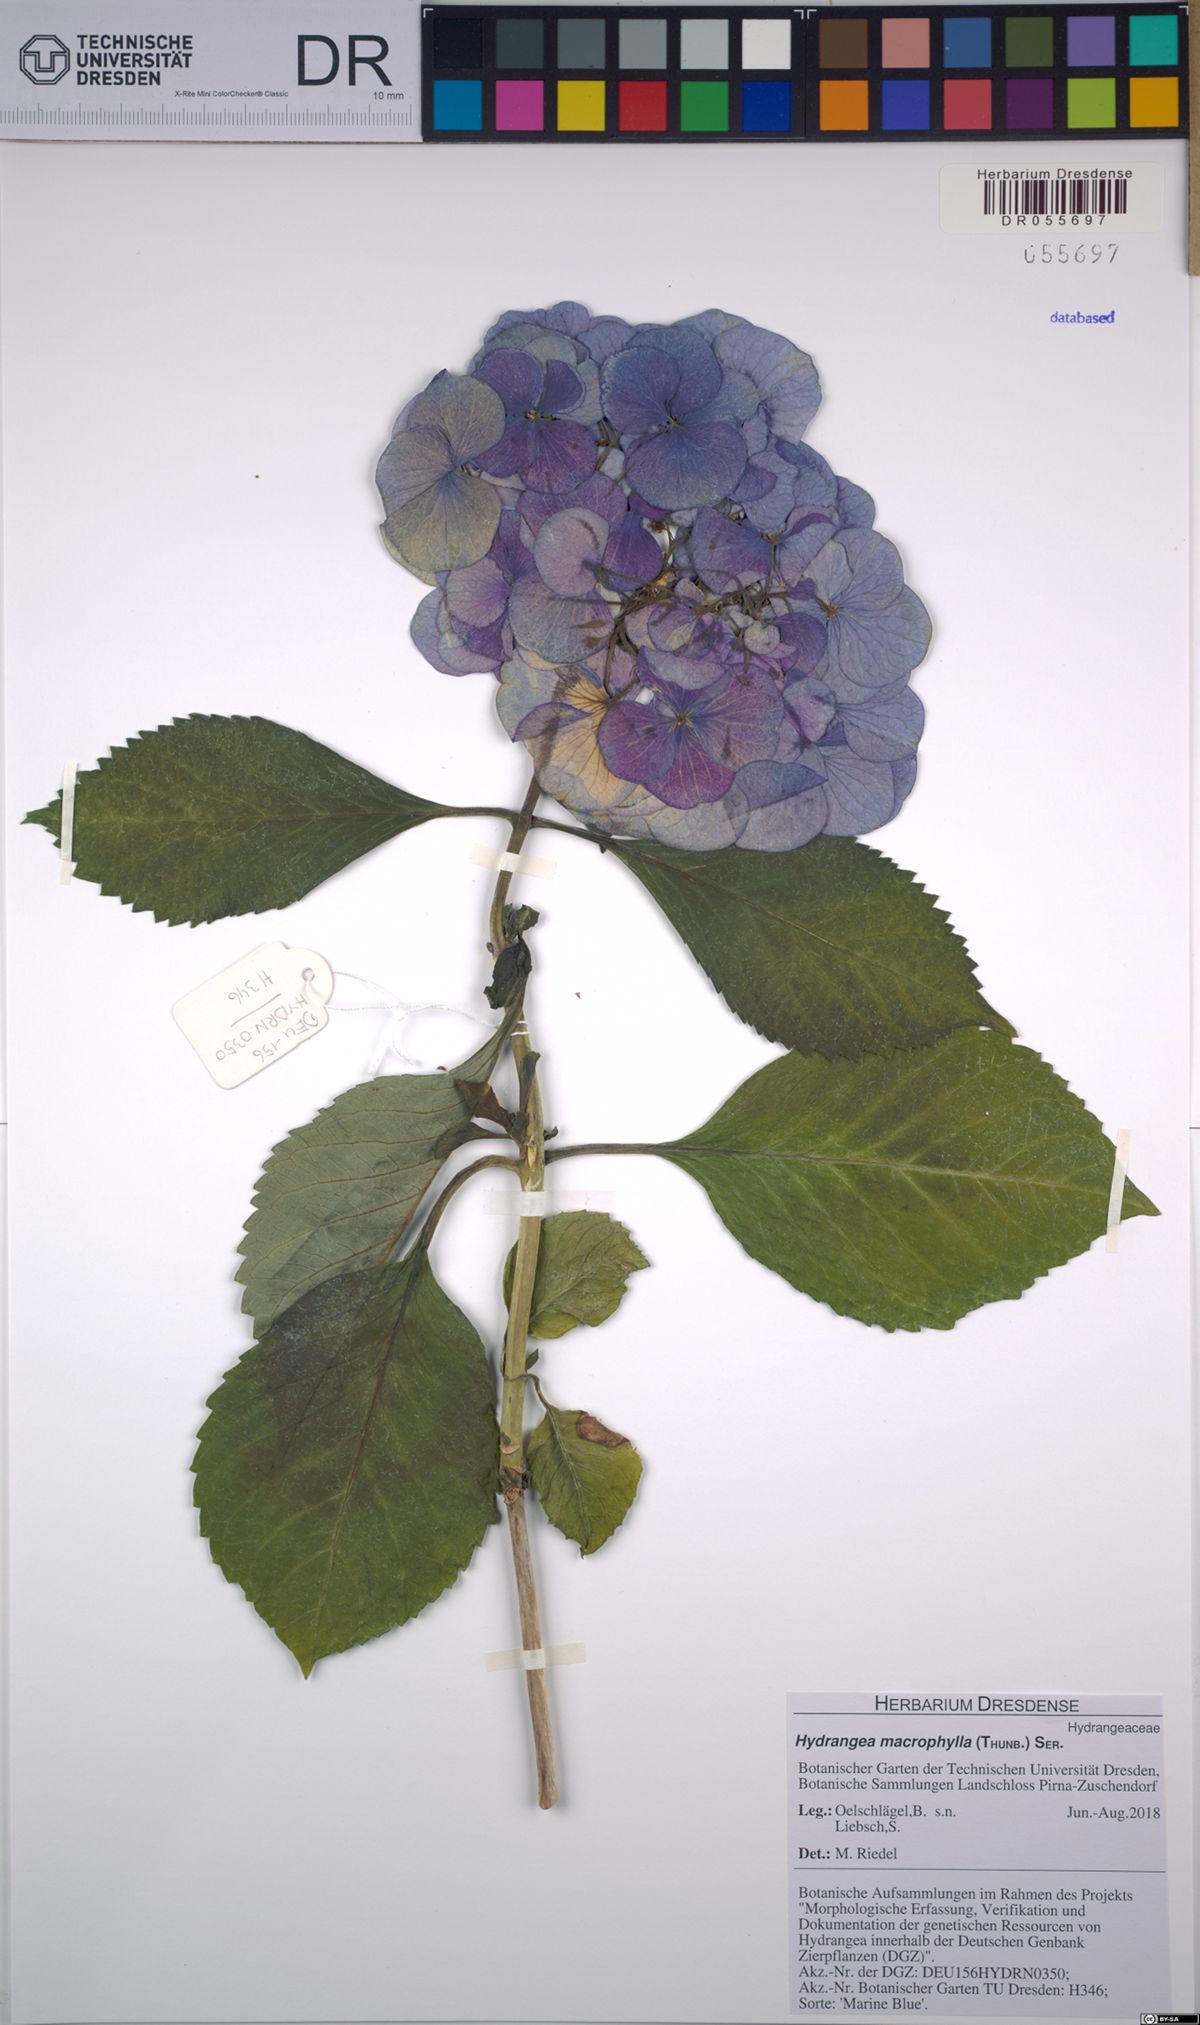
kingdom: Plantae
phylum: Tracheophyta
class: Magnoliopsida
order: Cornales
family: Hydrangeaceae
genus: Hydrangea
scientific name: Hydrangea macrophylla
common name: Hydrangea
